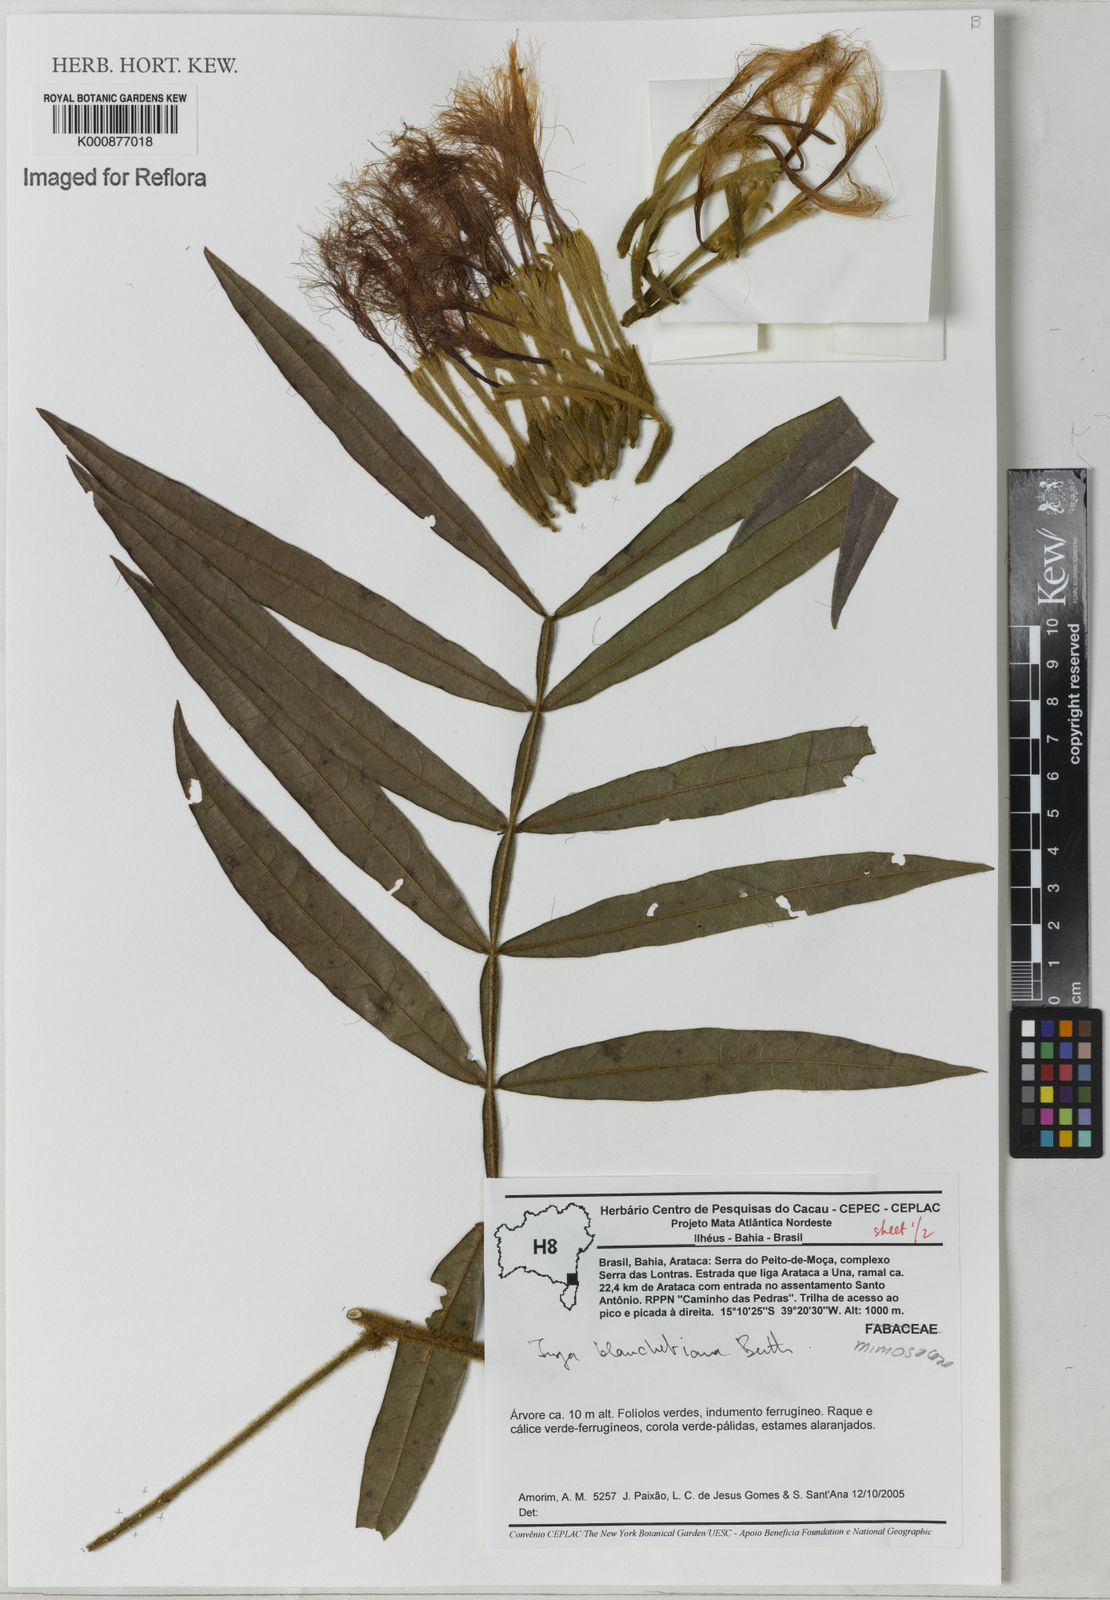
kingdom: Plantae
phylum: Tracheophyta
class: Magnoliopsida
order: Fabales
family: Fabaceae
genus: Inga
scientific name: Inga blanchetiana
